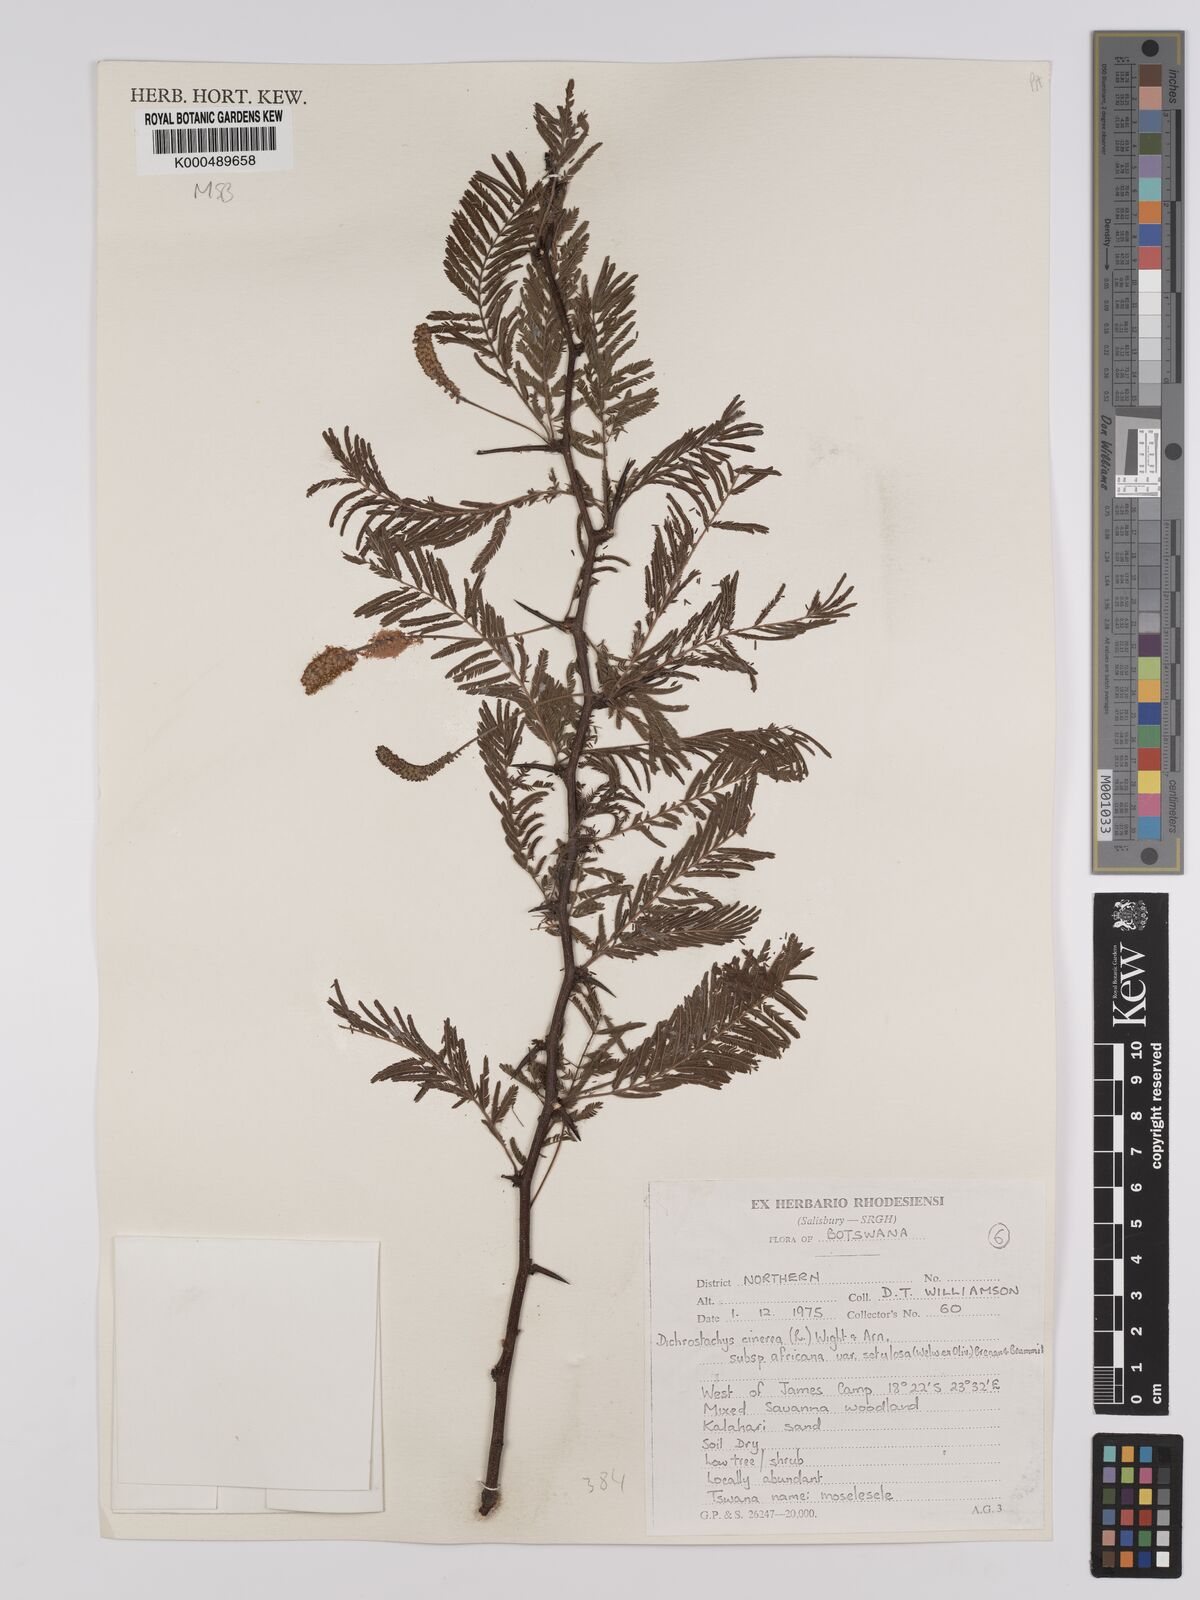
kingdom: Plantae
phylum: Tracheophyta
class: Magnoliopsida
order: Fabales
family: Fabaceae
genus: Dichrostachys
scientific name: Dichrostachys cinerea
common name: Sicklebush
